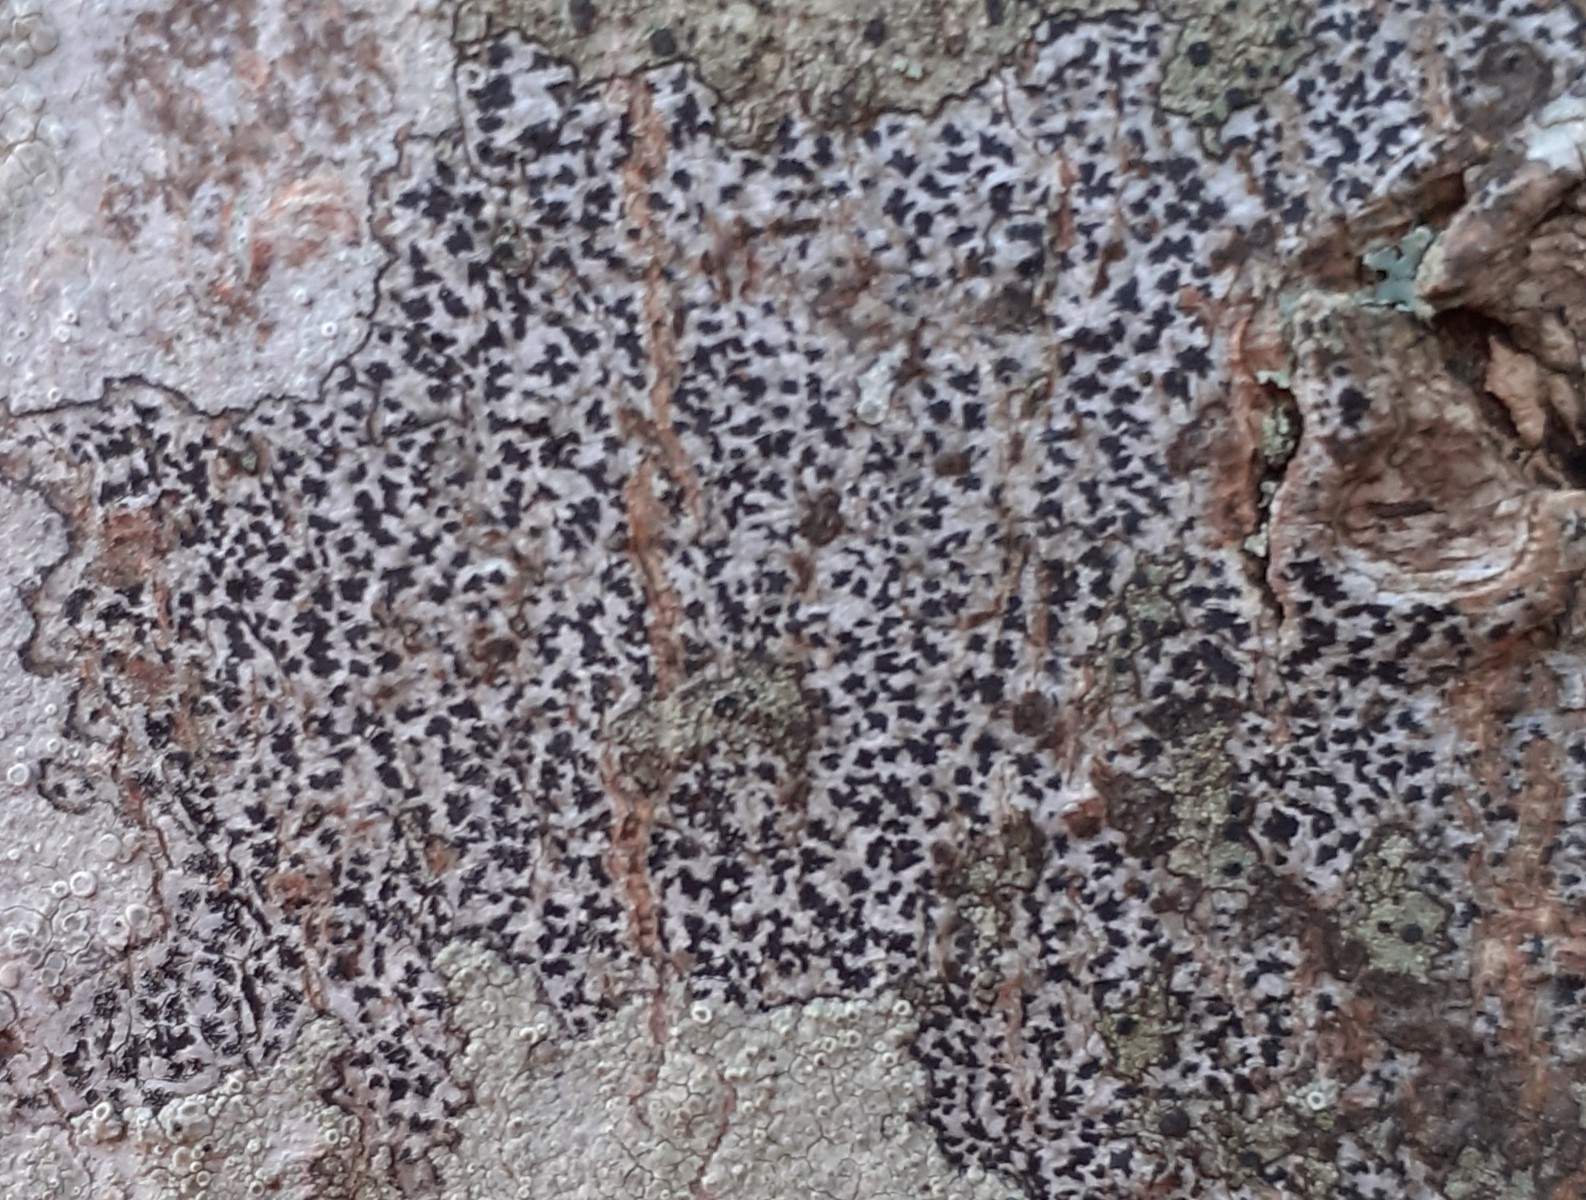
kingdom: Fungi
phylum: Ascomycota
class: Arthoniomycetes
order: Arthoniales
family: Arthoniaceae
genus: Arthonia
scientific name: Arthonia radiata
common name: stjerne-pletlav
